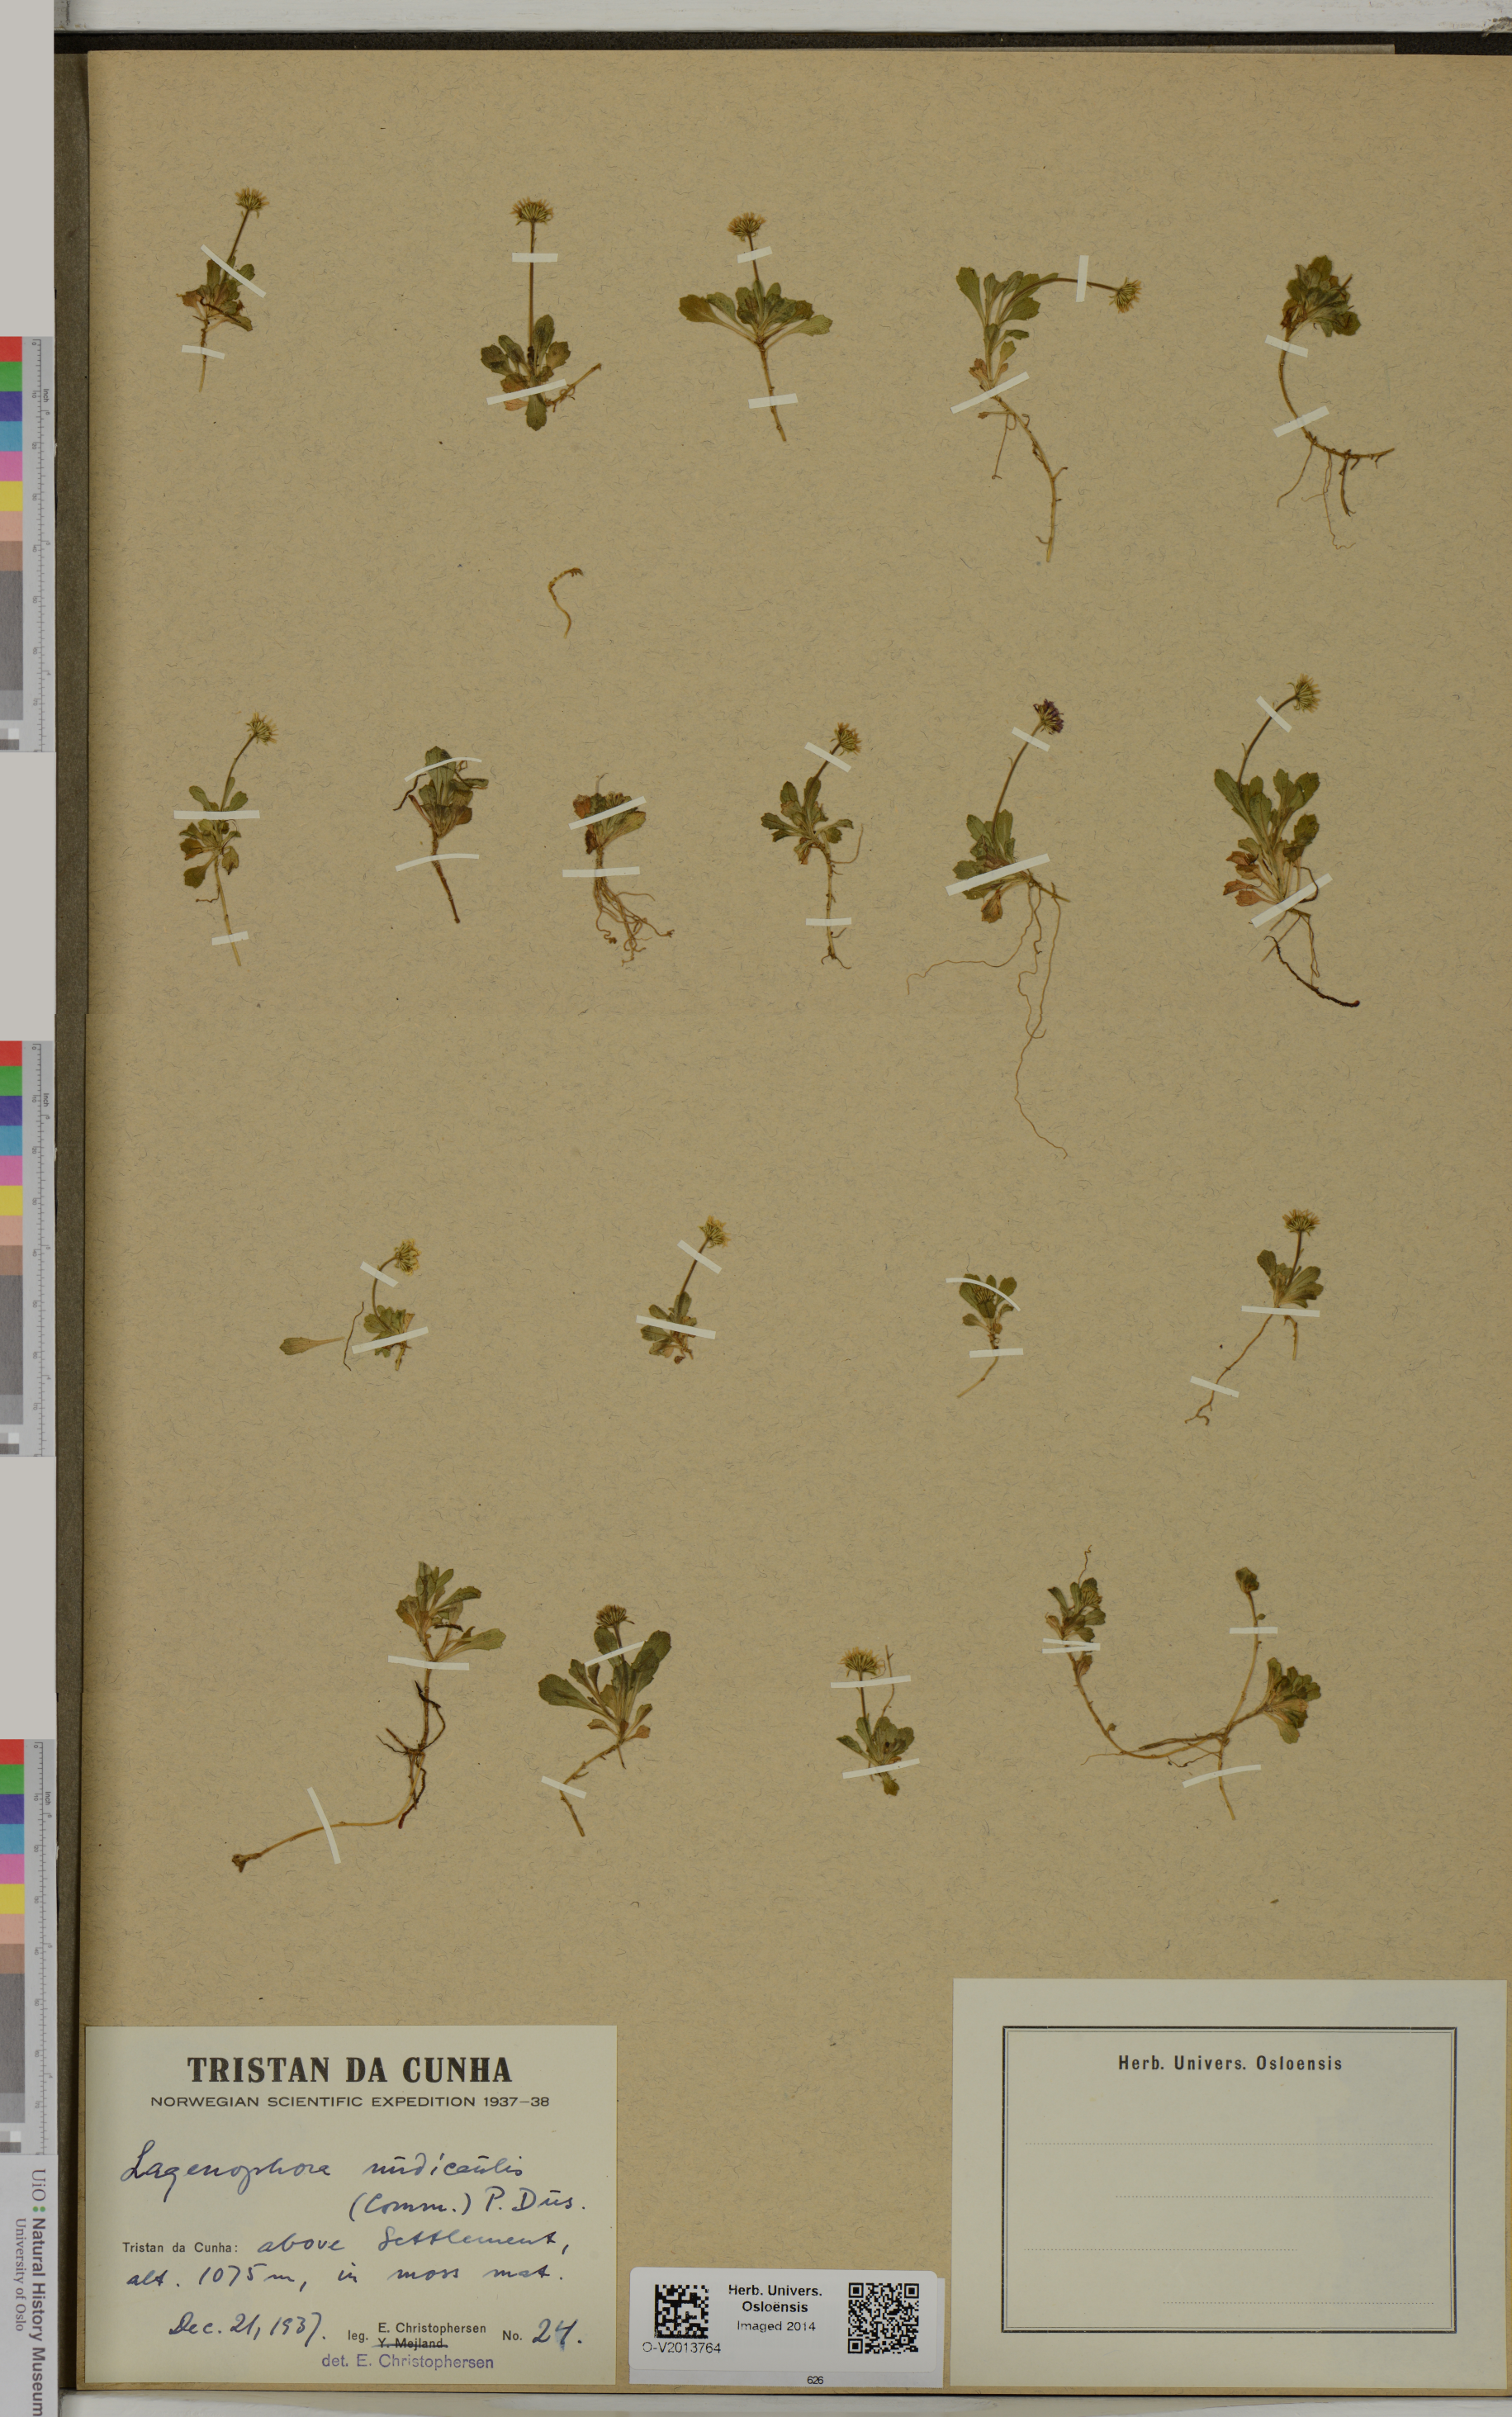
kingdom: Plantae
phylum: Tracheophyta
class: Magnoliopsida
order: Asterales
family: Asteraceae
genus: Lagenophora
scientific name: Lagenophora nudicaulis
